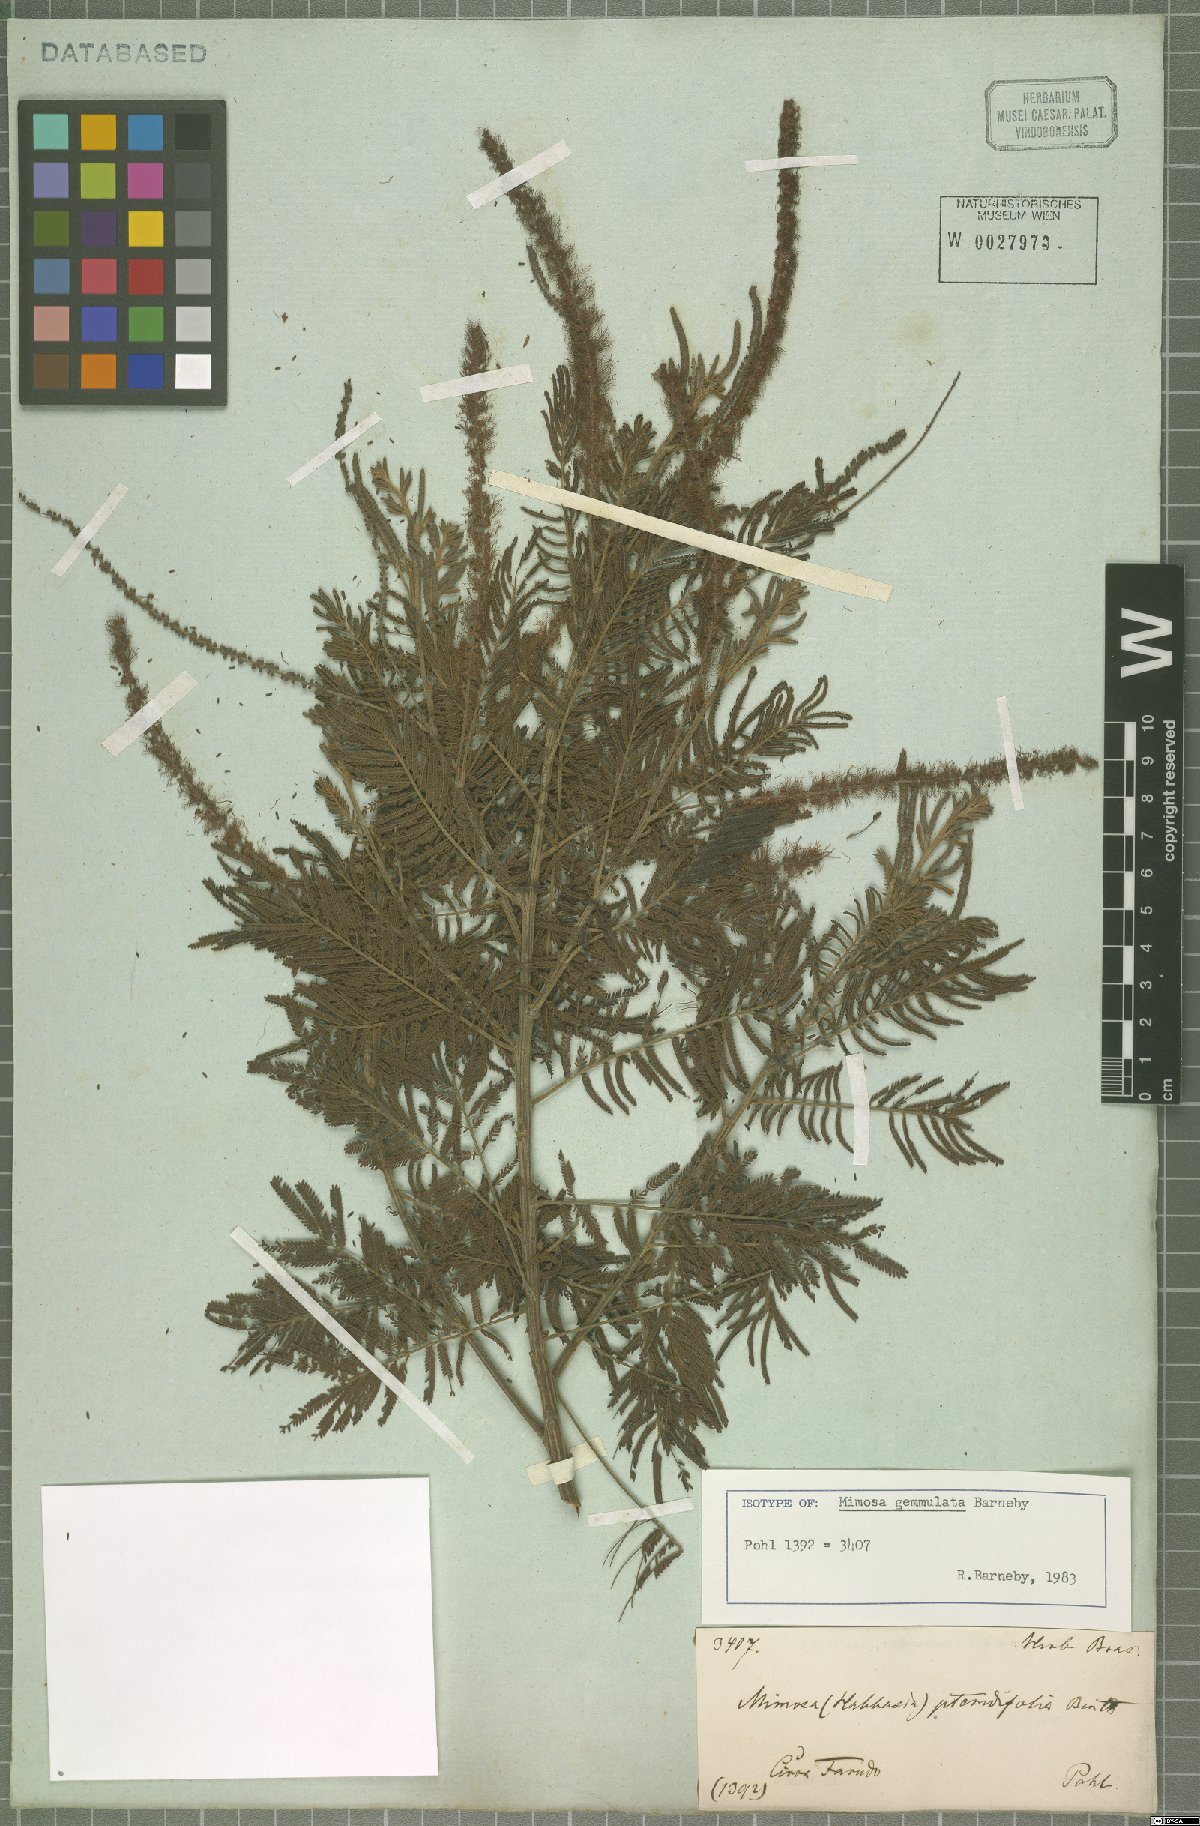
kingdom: Plantae
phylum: Tracheophyta
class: Magnoliopsida
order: Fabales
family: Fabaceae
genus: Mimosa
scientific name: Mimosa gemmulata
